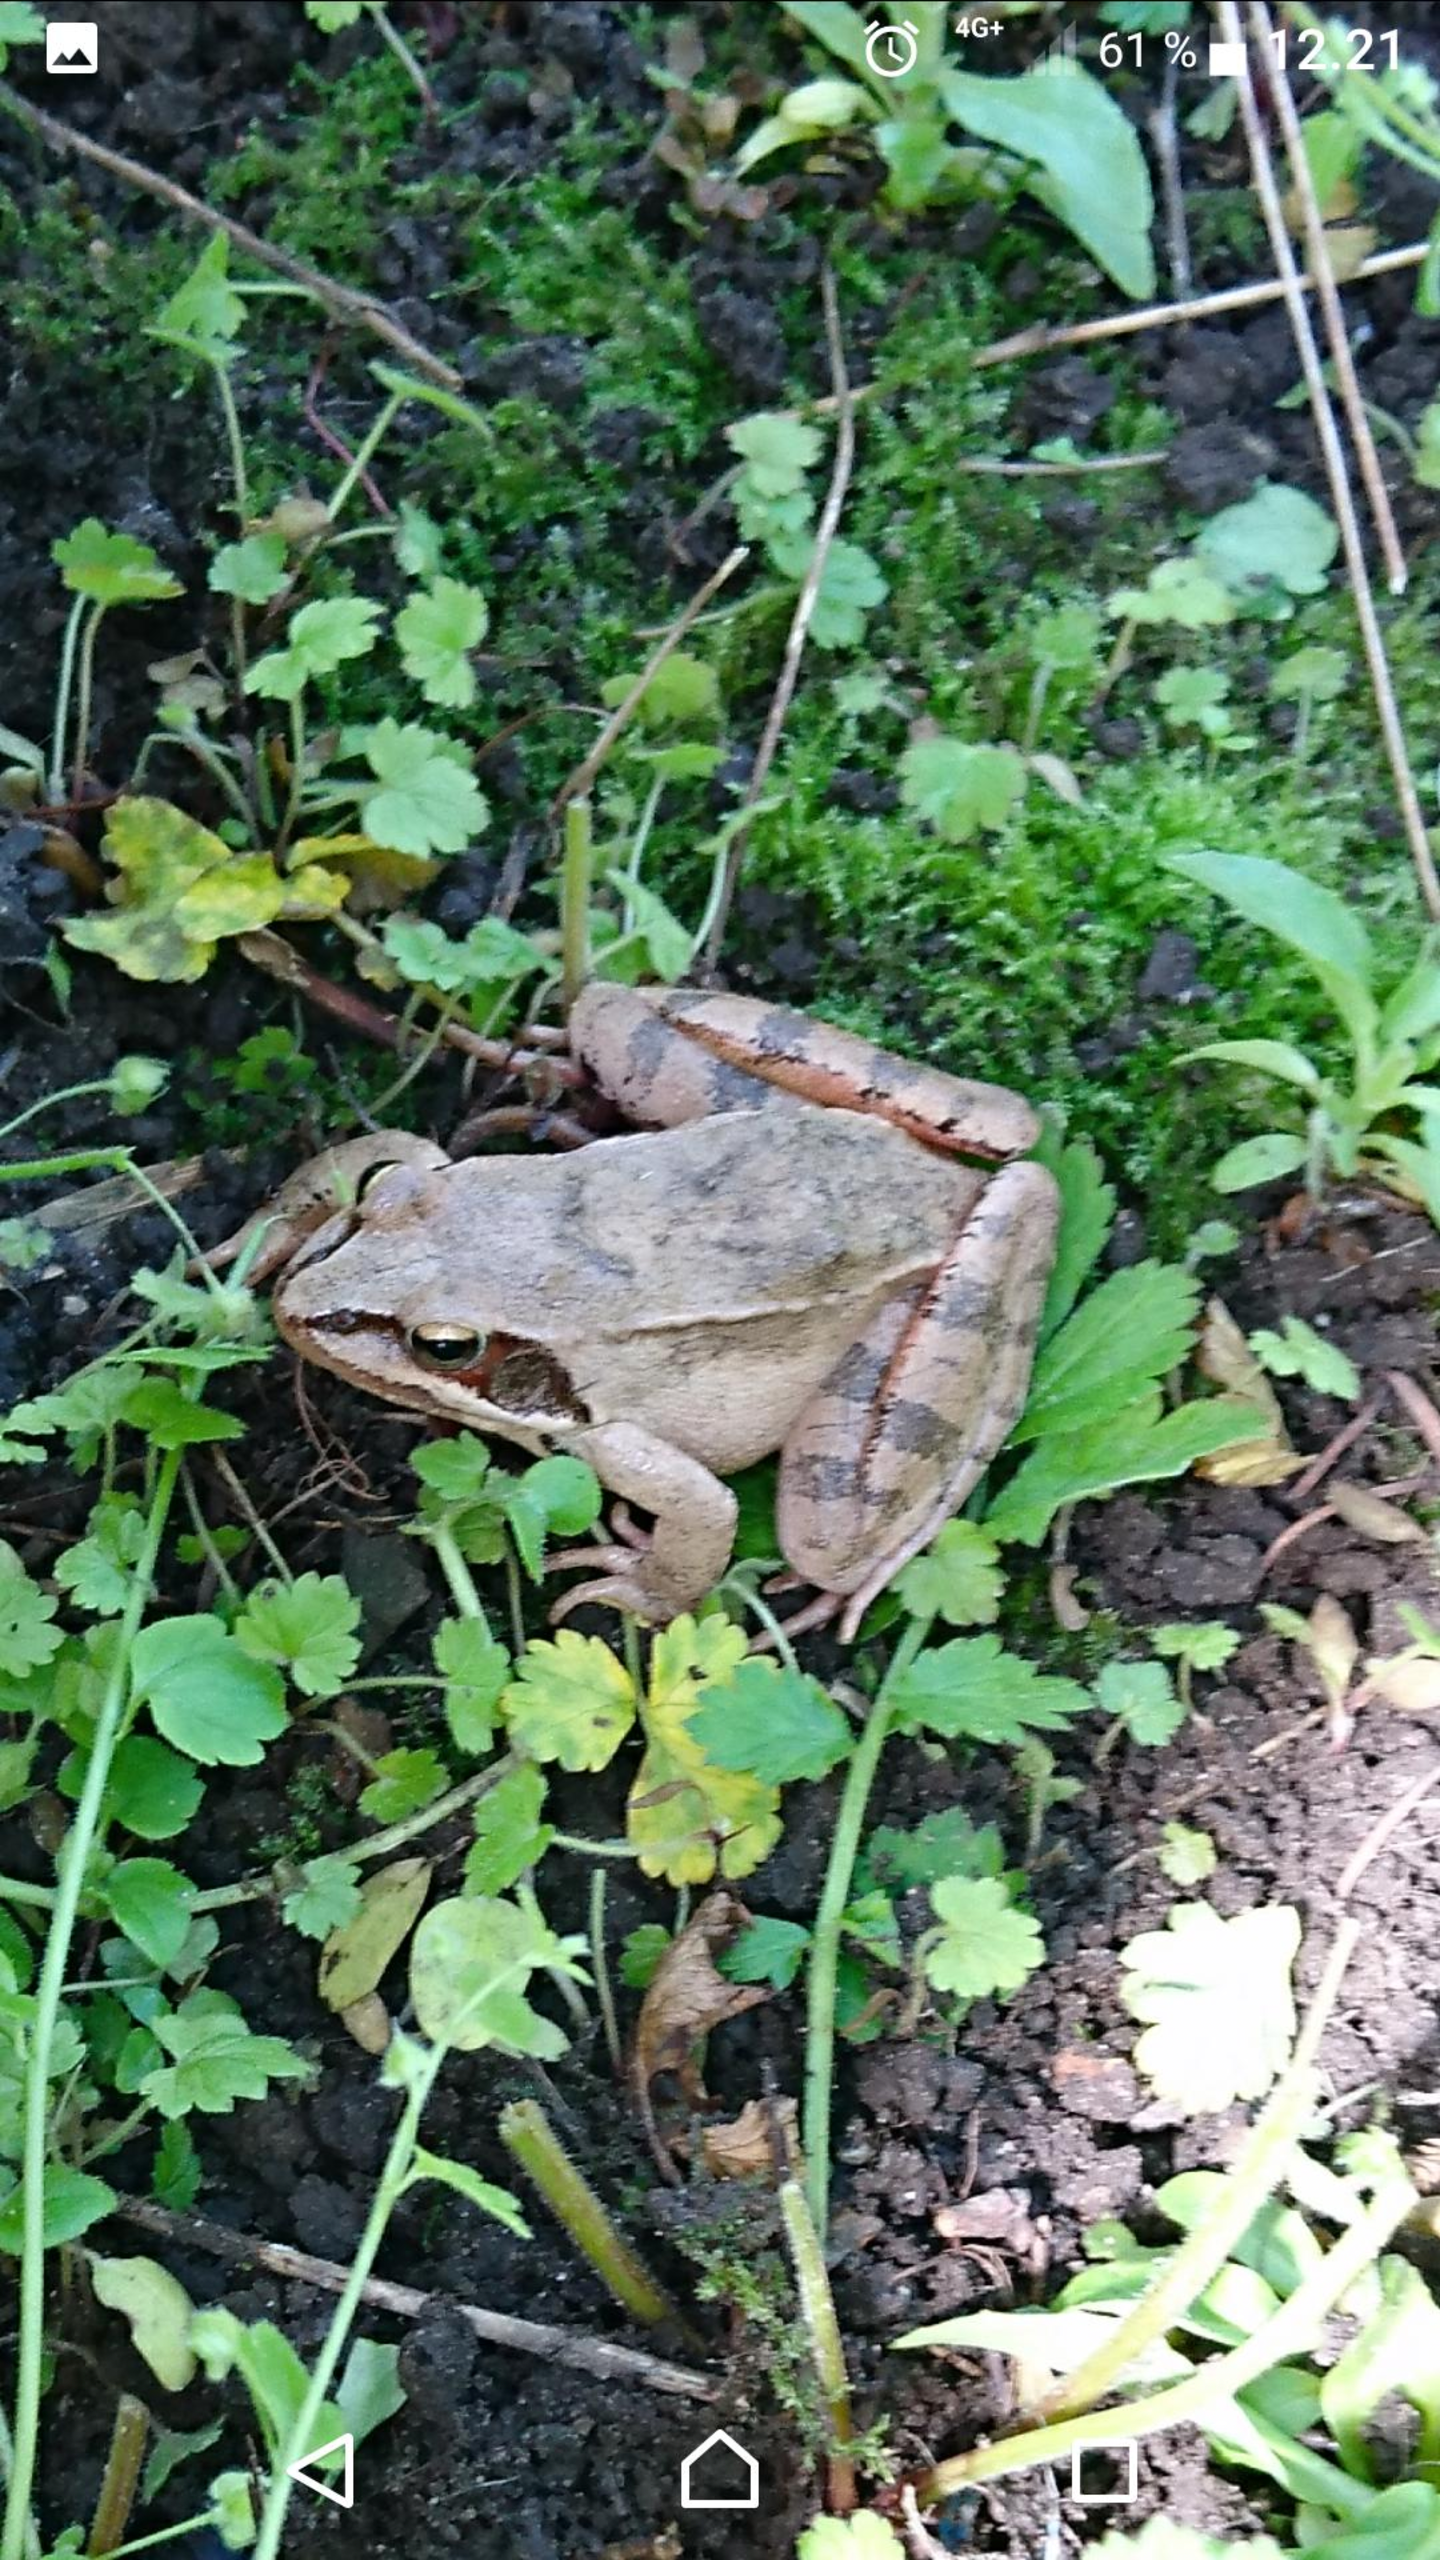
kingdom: Animalia
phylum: Chordata
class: Amphibia
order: Anura
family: Ranidae
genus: Rana
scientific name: Rana dalmatina
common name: Springfrø
